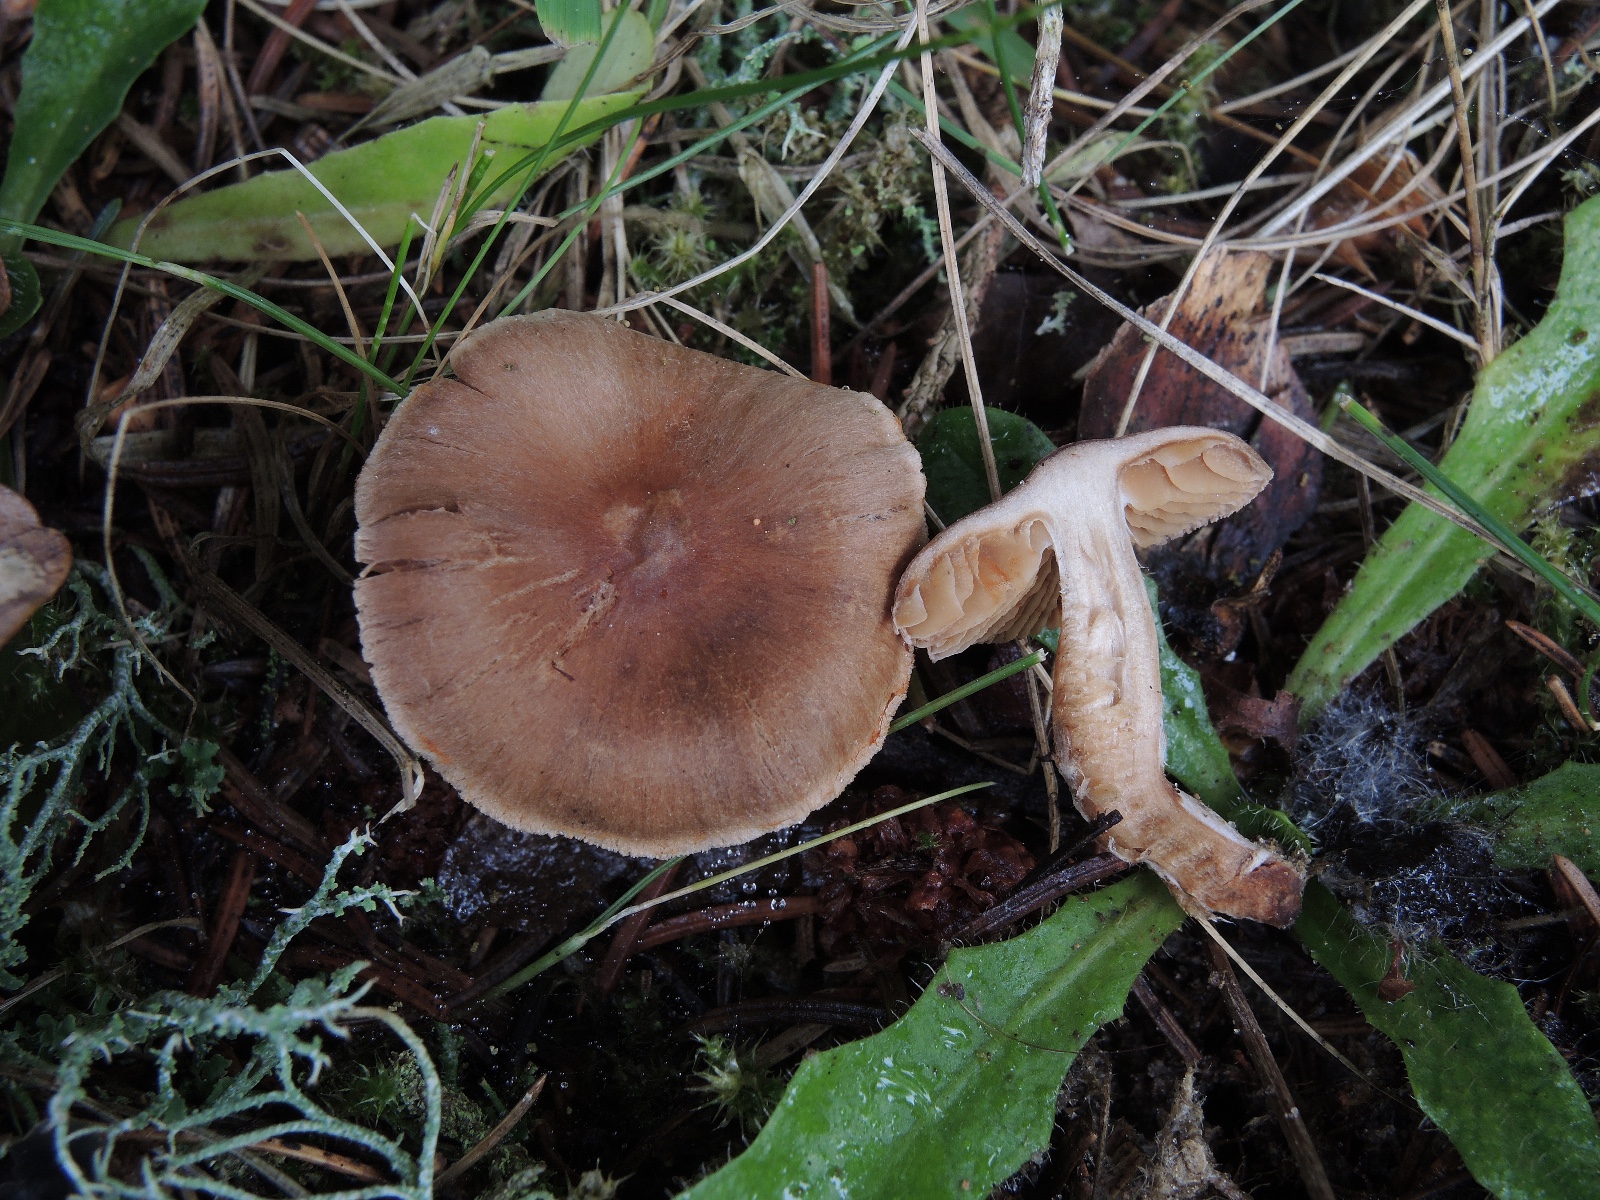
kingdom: Fungi
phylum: Basidiomycota
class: Agaricomycetes
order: Agaricales
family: Cortinariaceae
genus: Cortinarius
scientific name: Cortinarius
